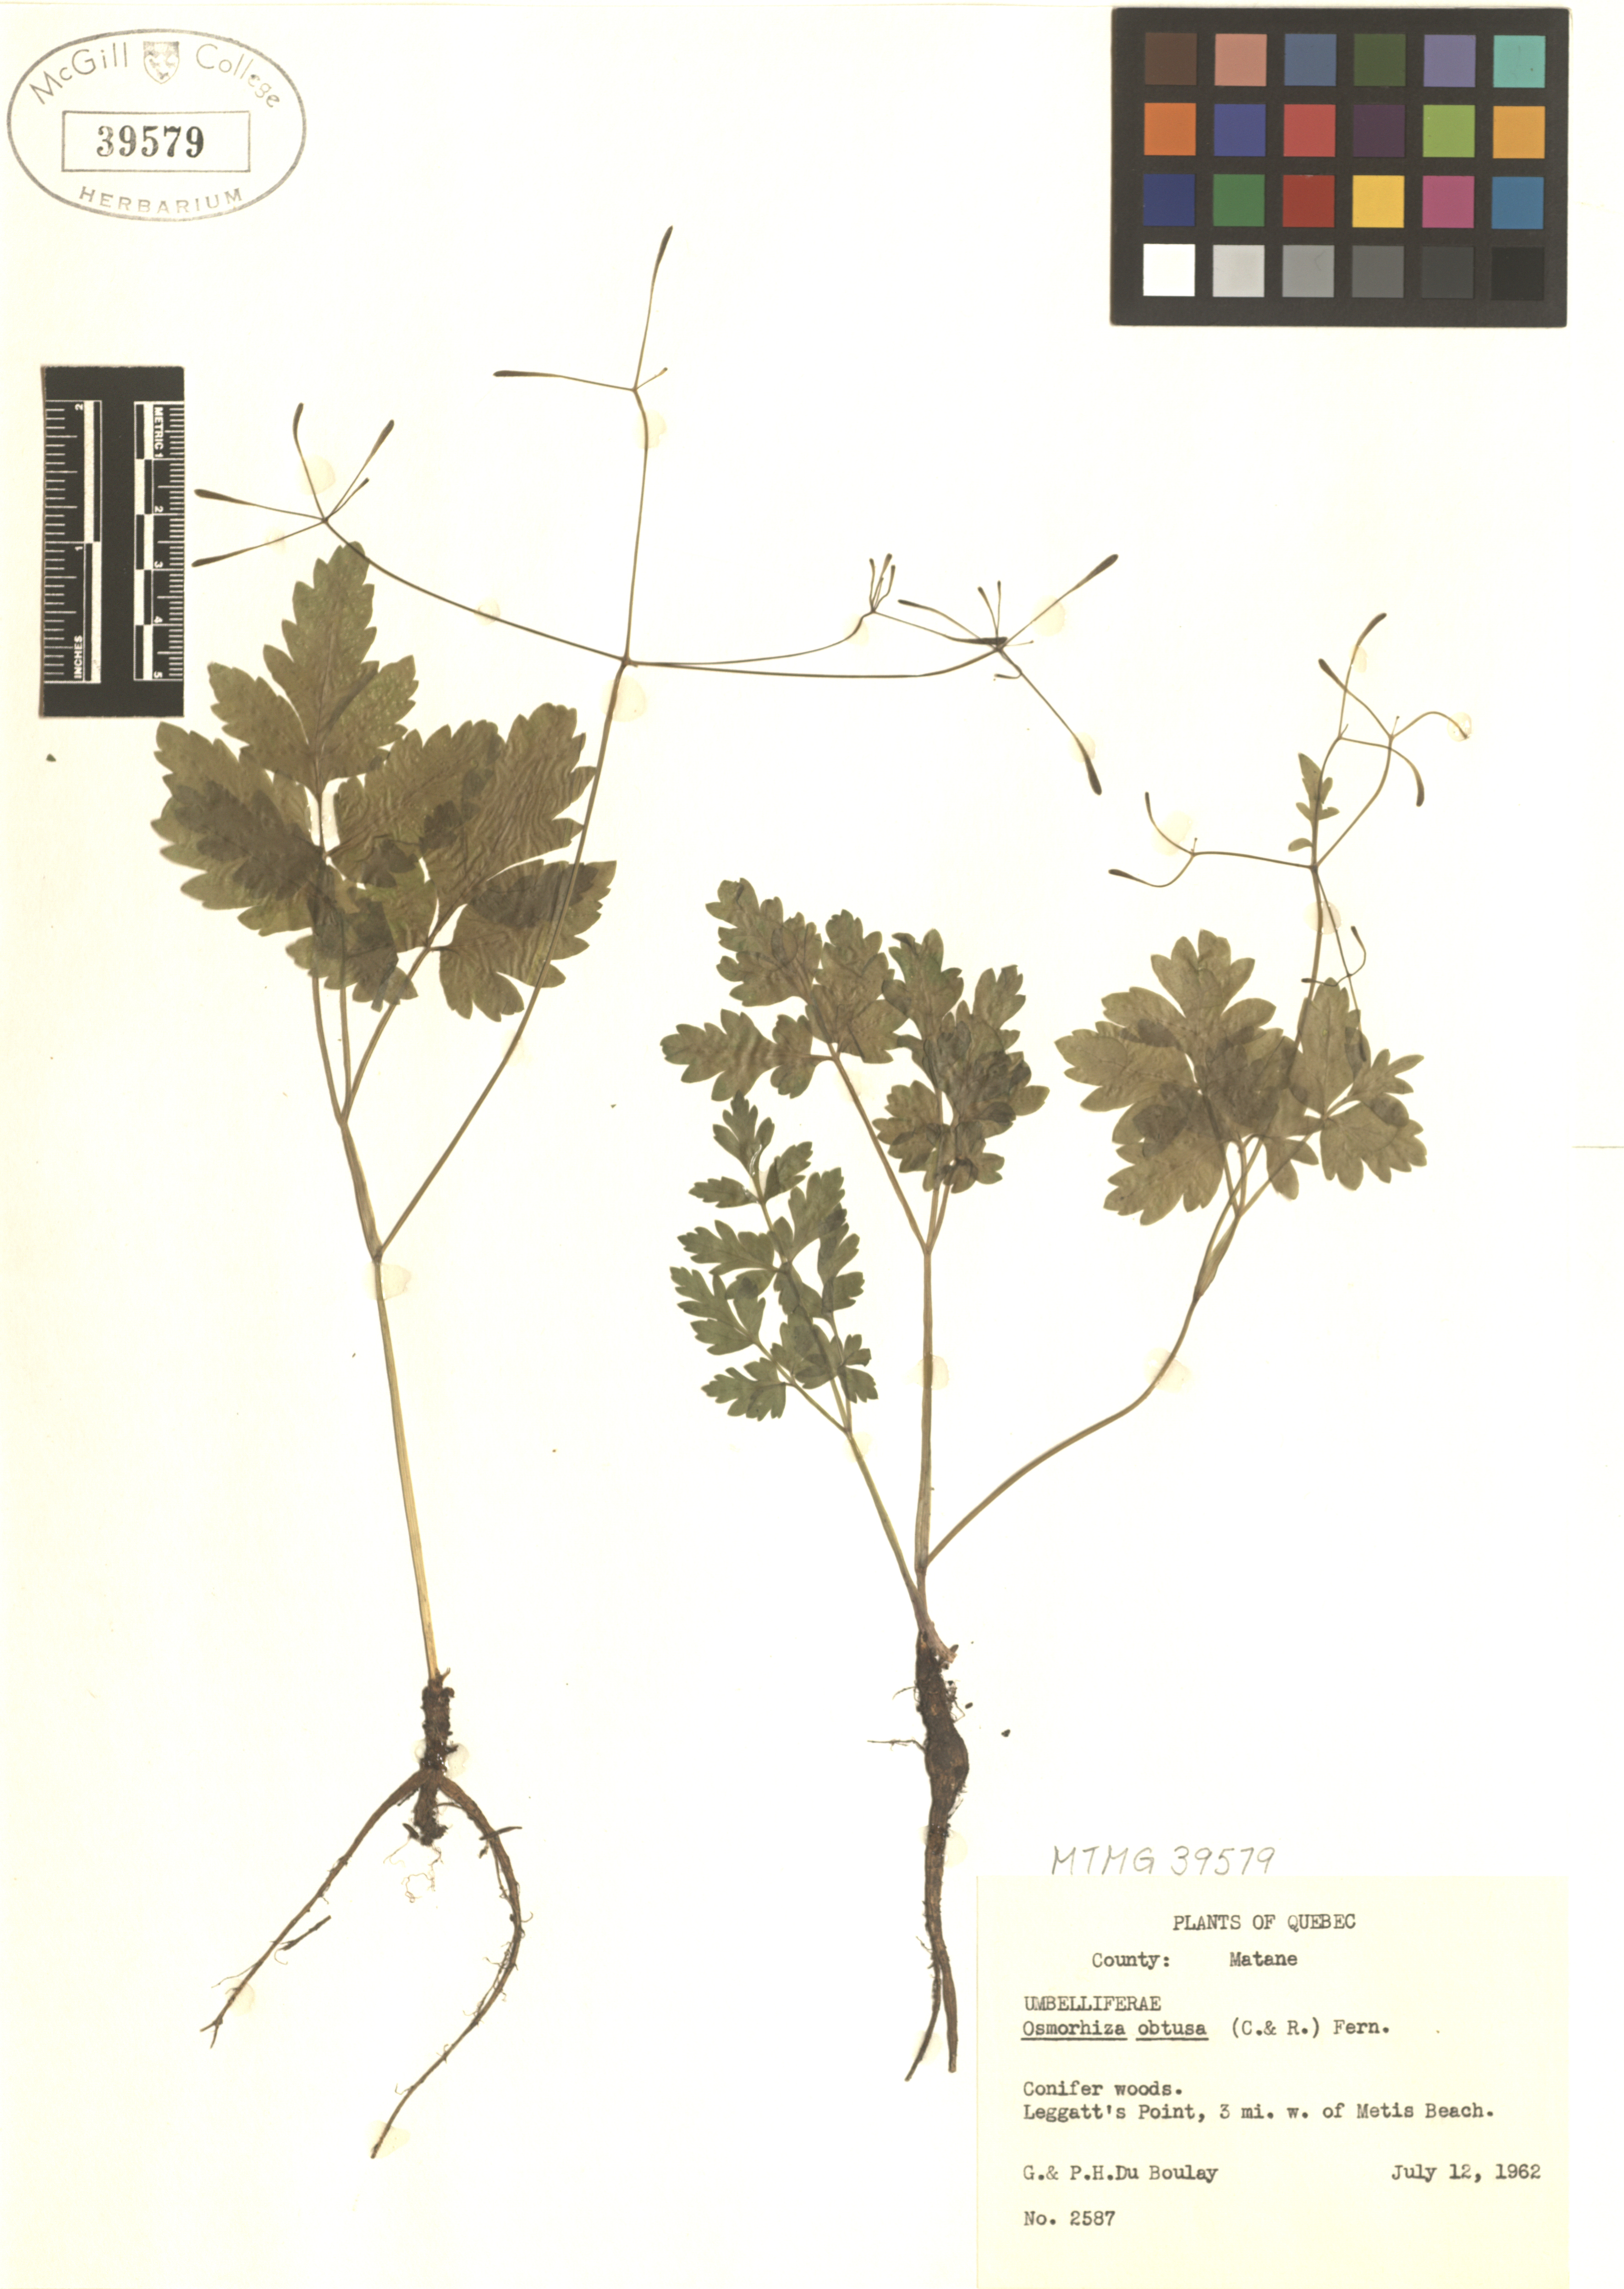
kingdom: Plantae
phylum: Tracheophyta
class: Magnoliopsida
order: Apiales
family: Apiaceae
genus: Osmorhiza
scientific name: Osmorhiza depauperata
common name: Blunt sweet cicely
